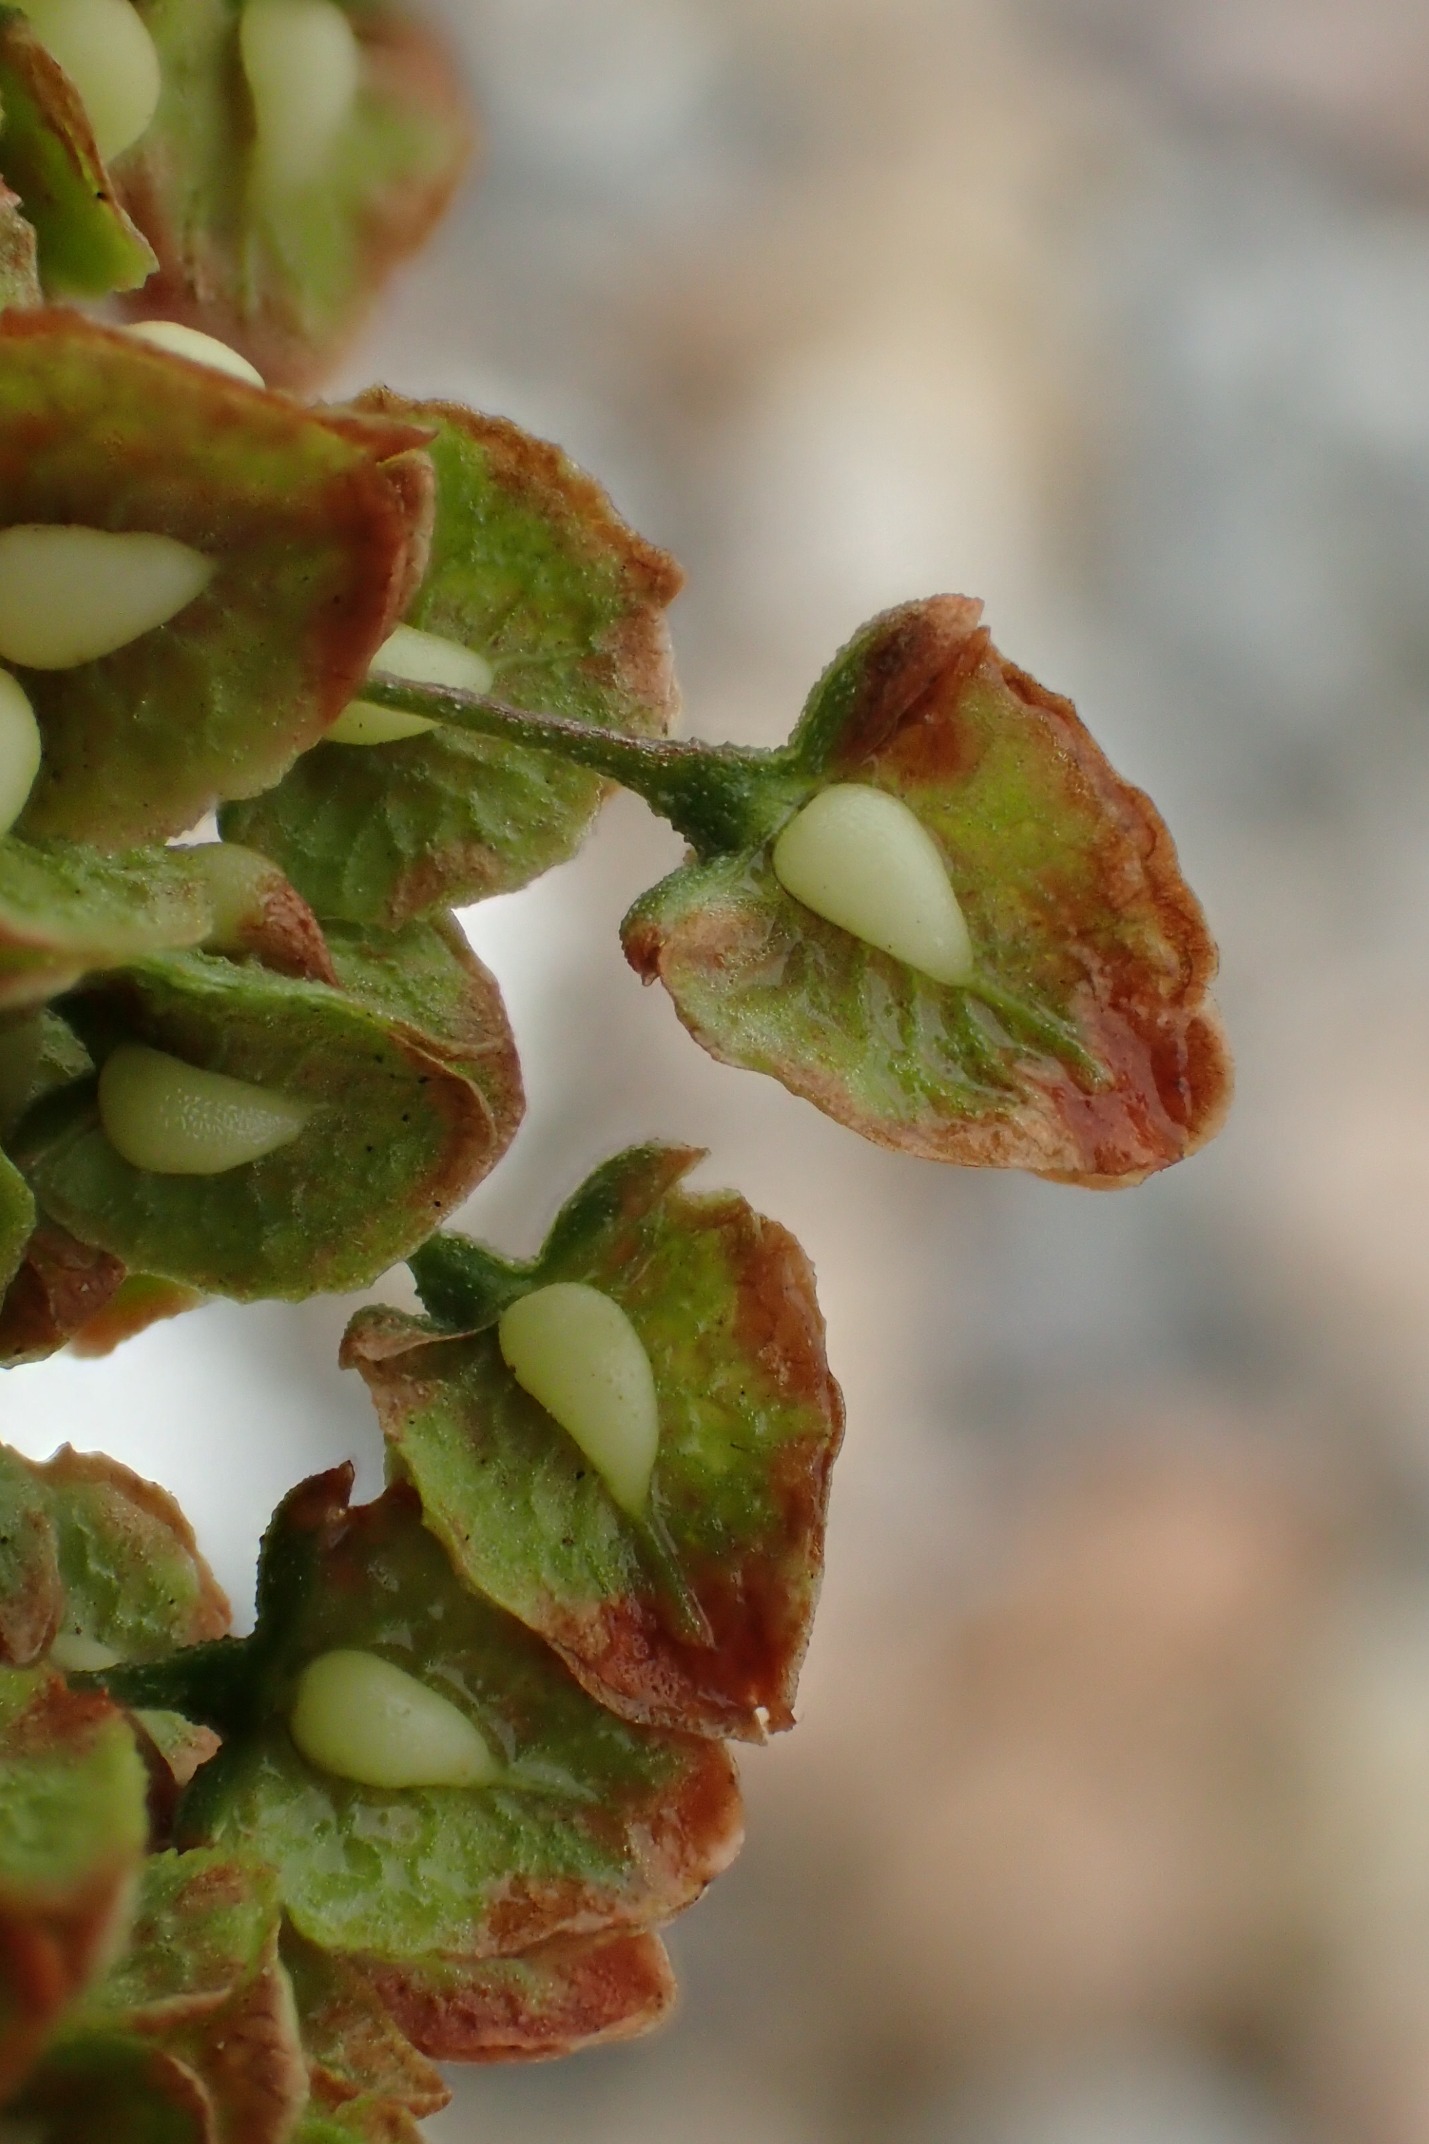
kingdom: Plantae
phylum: Tracheophyta
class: Magnoliopsida
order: Caryophyllales
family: Polygonaceae
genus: Rumex
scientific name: Rumex crispus
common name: Kruset skræppe
